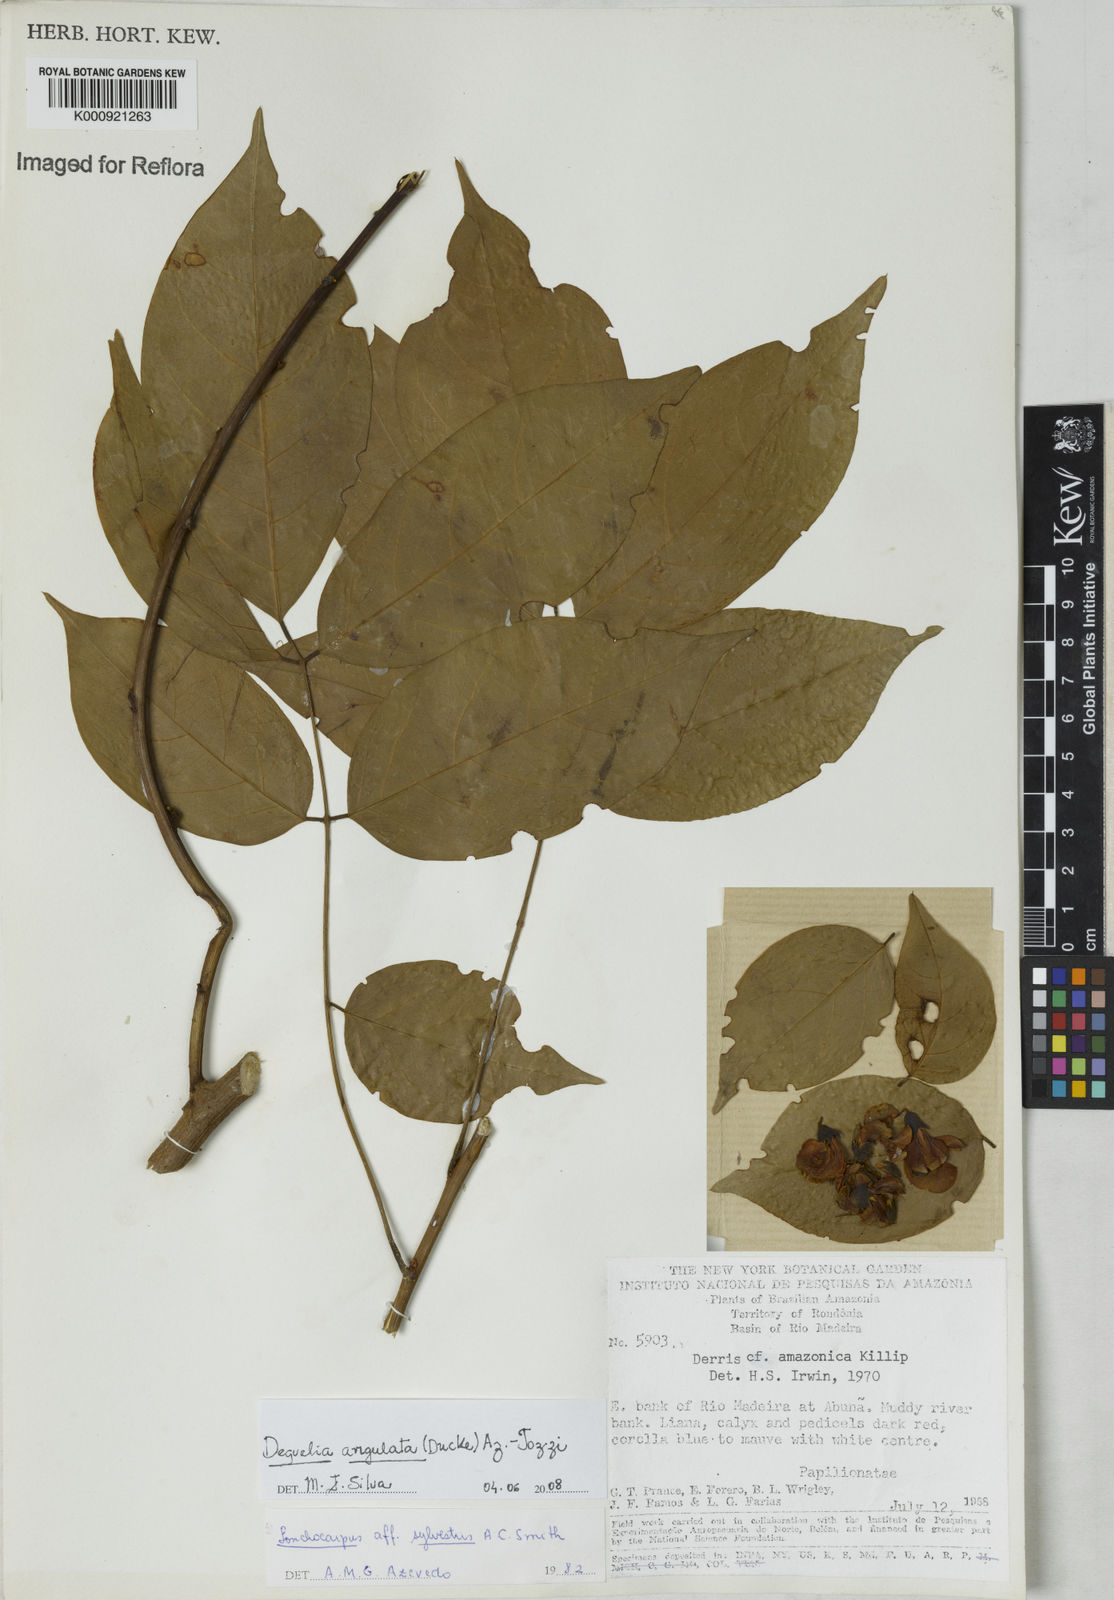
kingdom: Plantae
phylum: Tracheophyta
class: Magnoliopsida
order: Fabales
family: Fabaceae
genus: Deguelia
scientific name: Deguelia angulata
